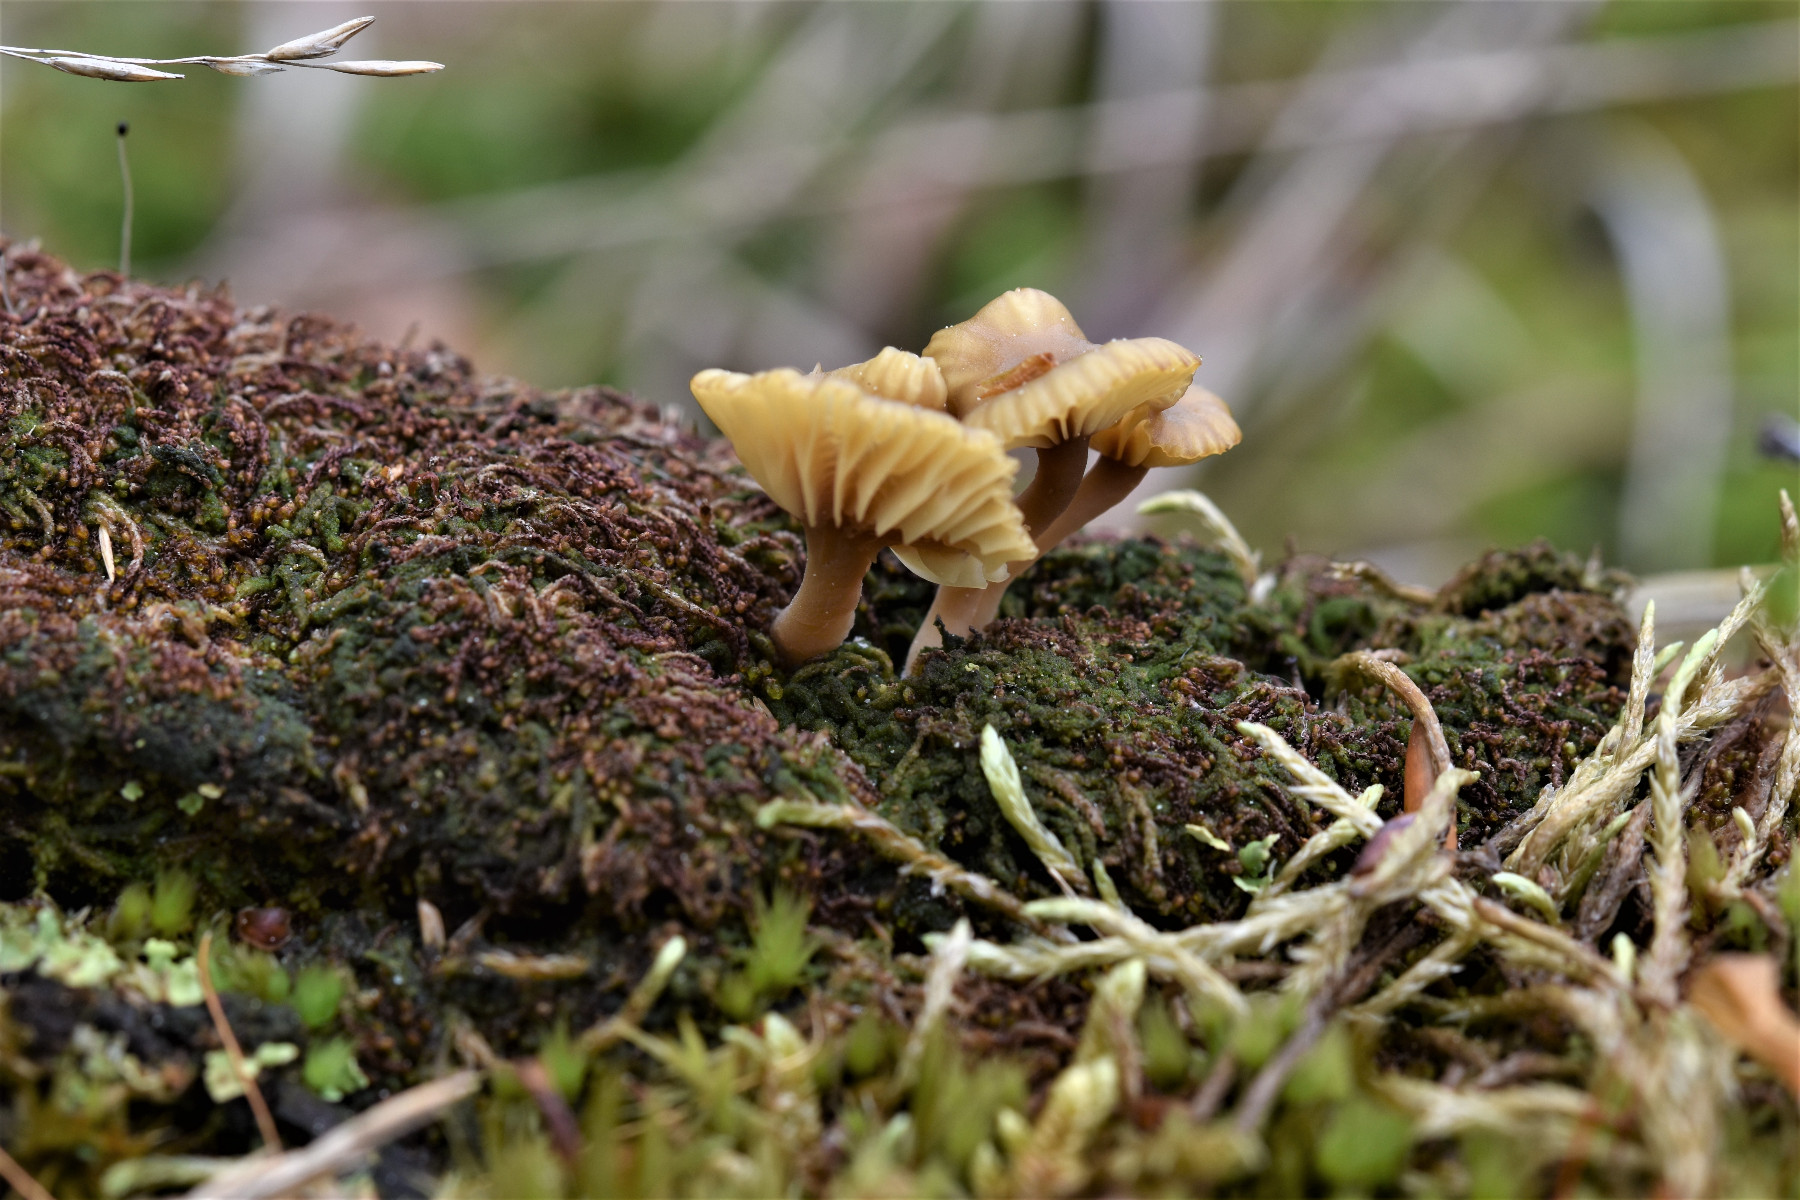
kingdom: Fungi
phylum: Basidiomycota
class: Agaricomycetes
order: Agaricales
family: Hygrophoraceae
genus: Lichenomphalia
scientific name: Lichenomphalia umbellifera
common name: tørve-lavhat
